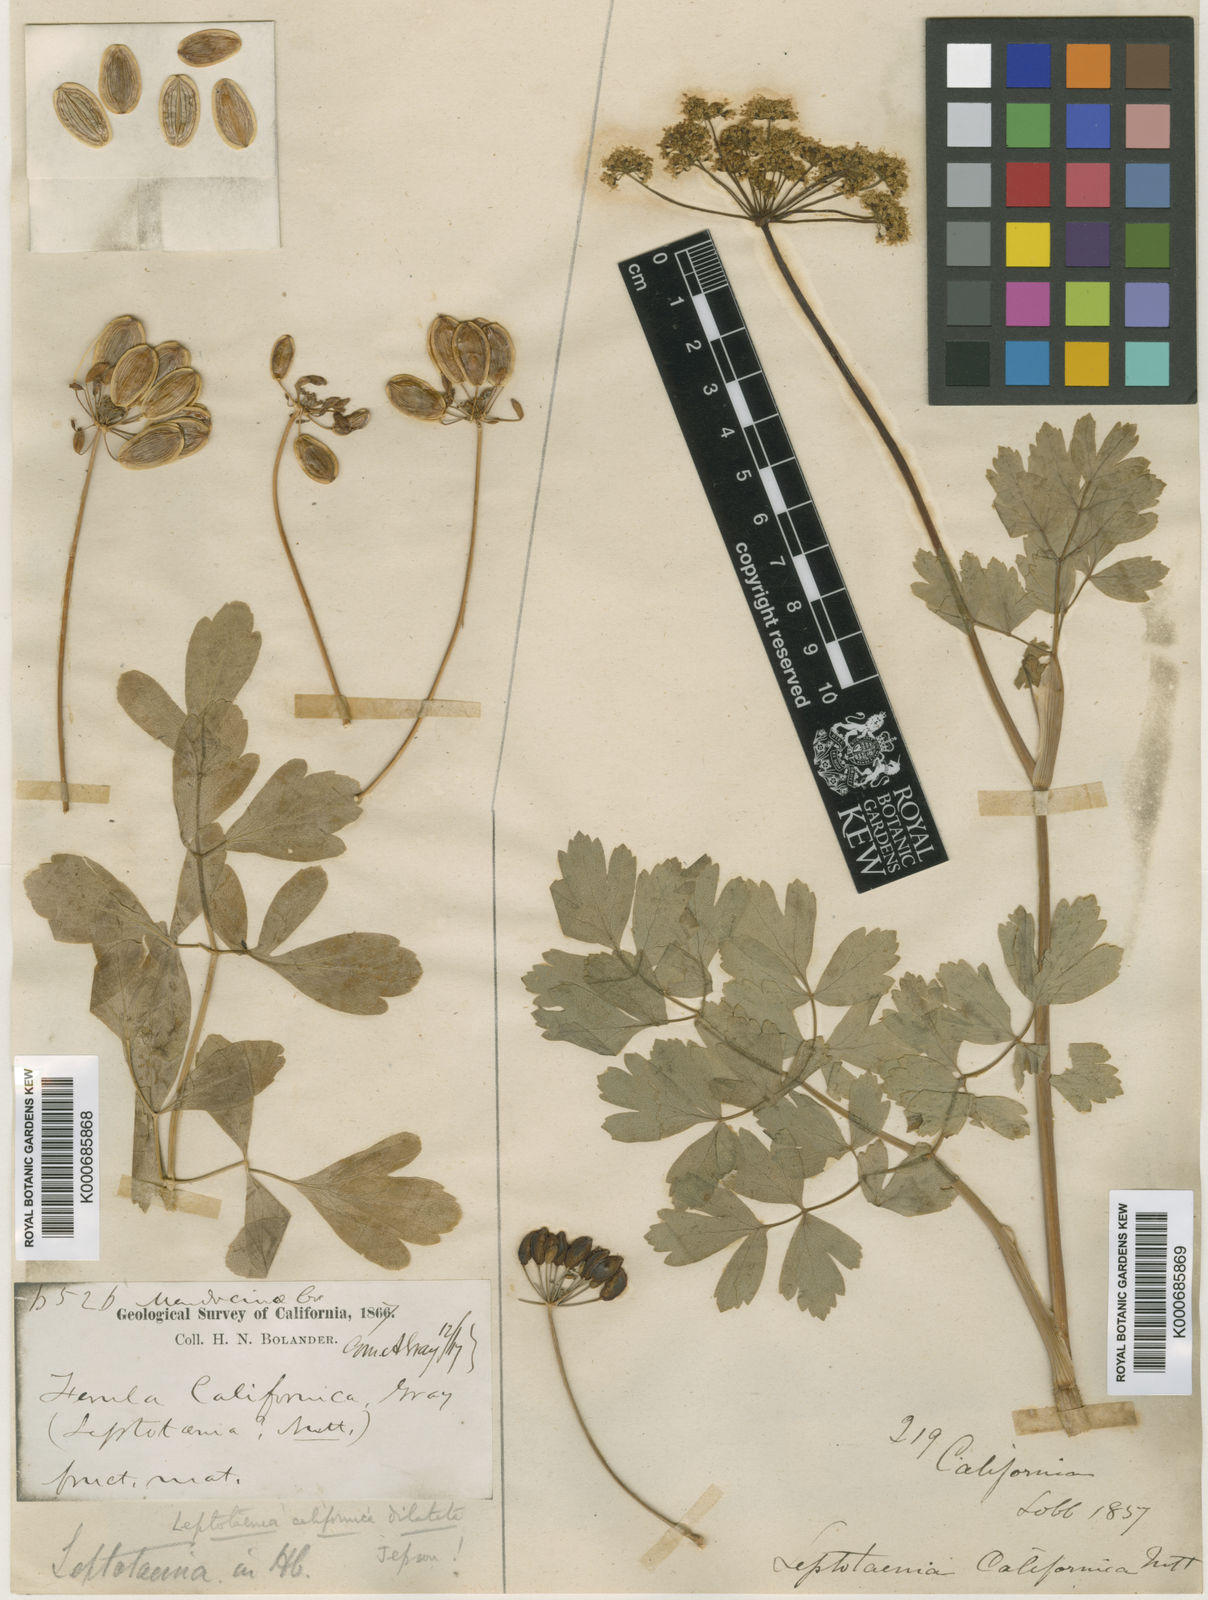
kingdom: Plantae
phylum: Tracheophyta
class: Magnoliopsida
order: Apiales
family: Apiaceae
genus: Lomatium
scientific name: Lomatium californicum
